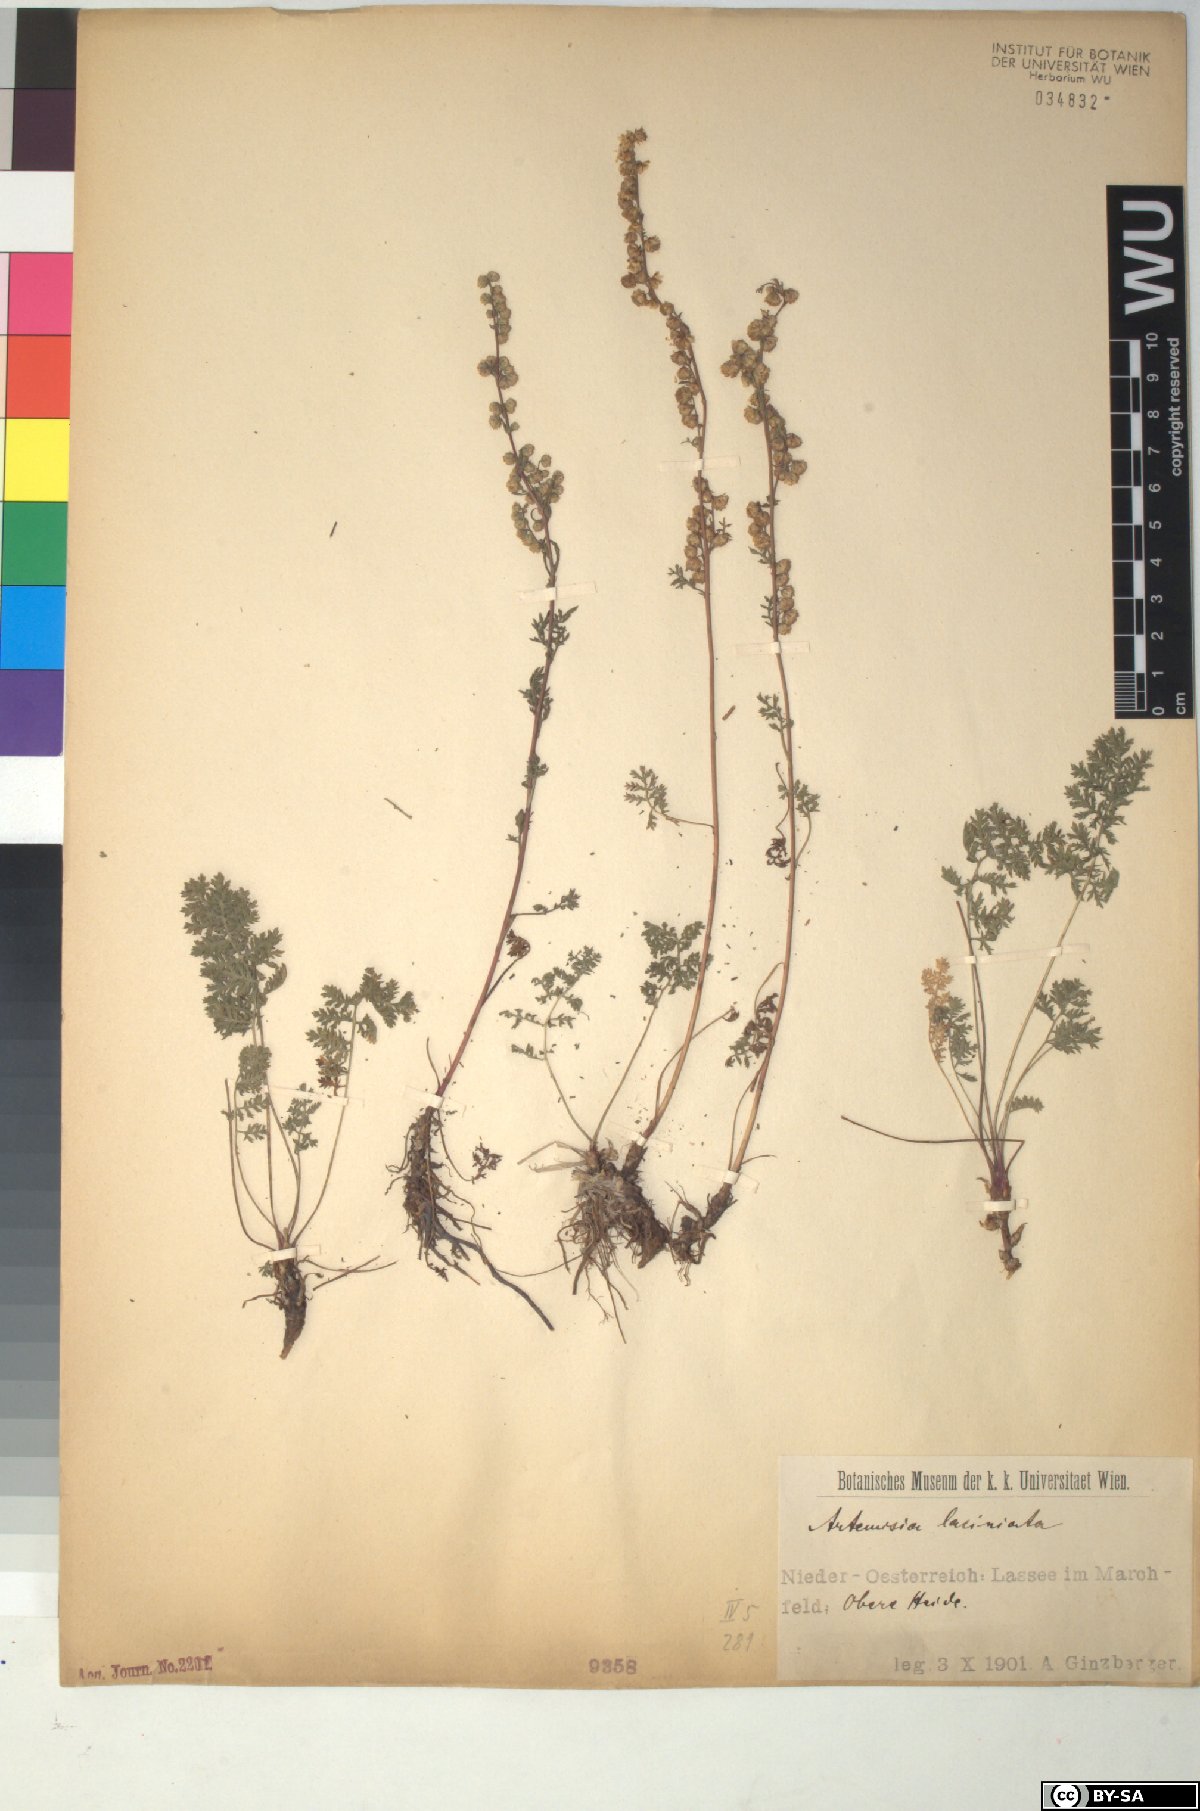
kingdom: Plantae
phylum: Tracheophyta
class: Magnoliopsida
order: Asterales
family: Asteraceae
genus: Artemisia
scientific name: Artemisia laciniata
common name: Siberian wormwood
